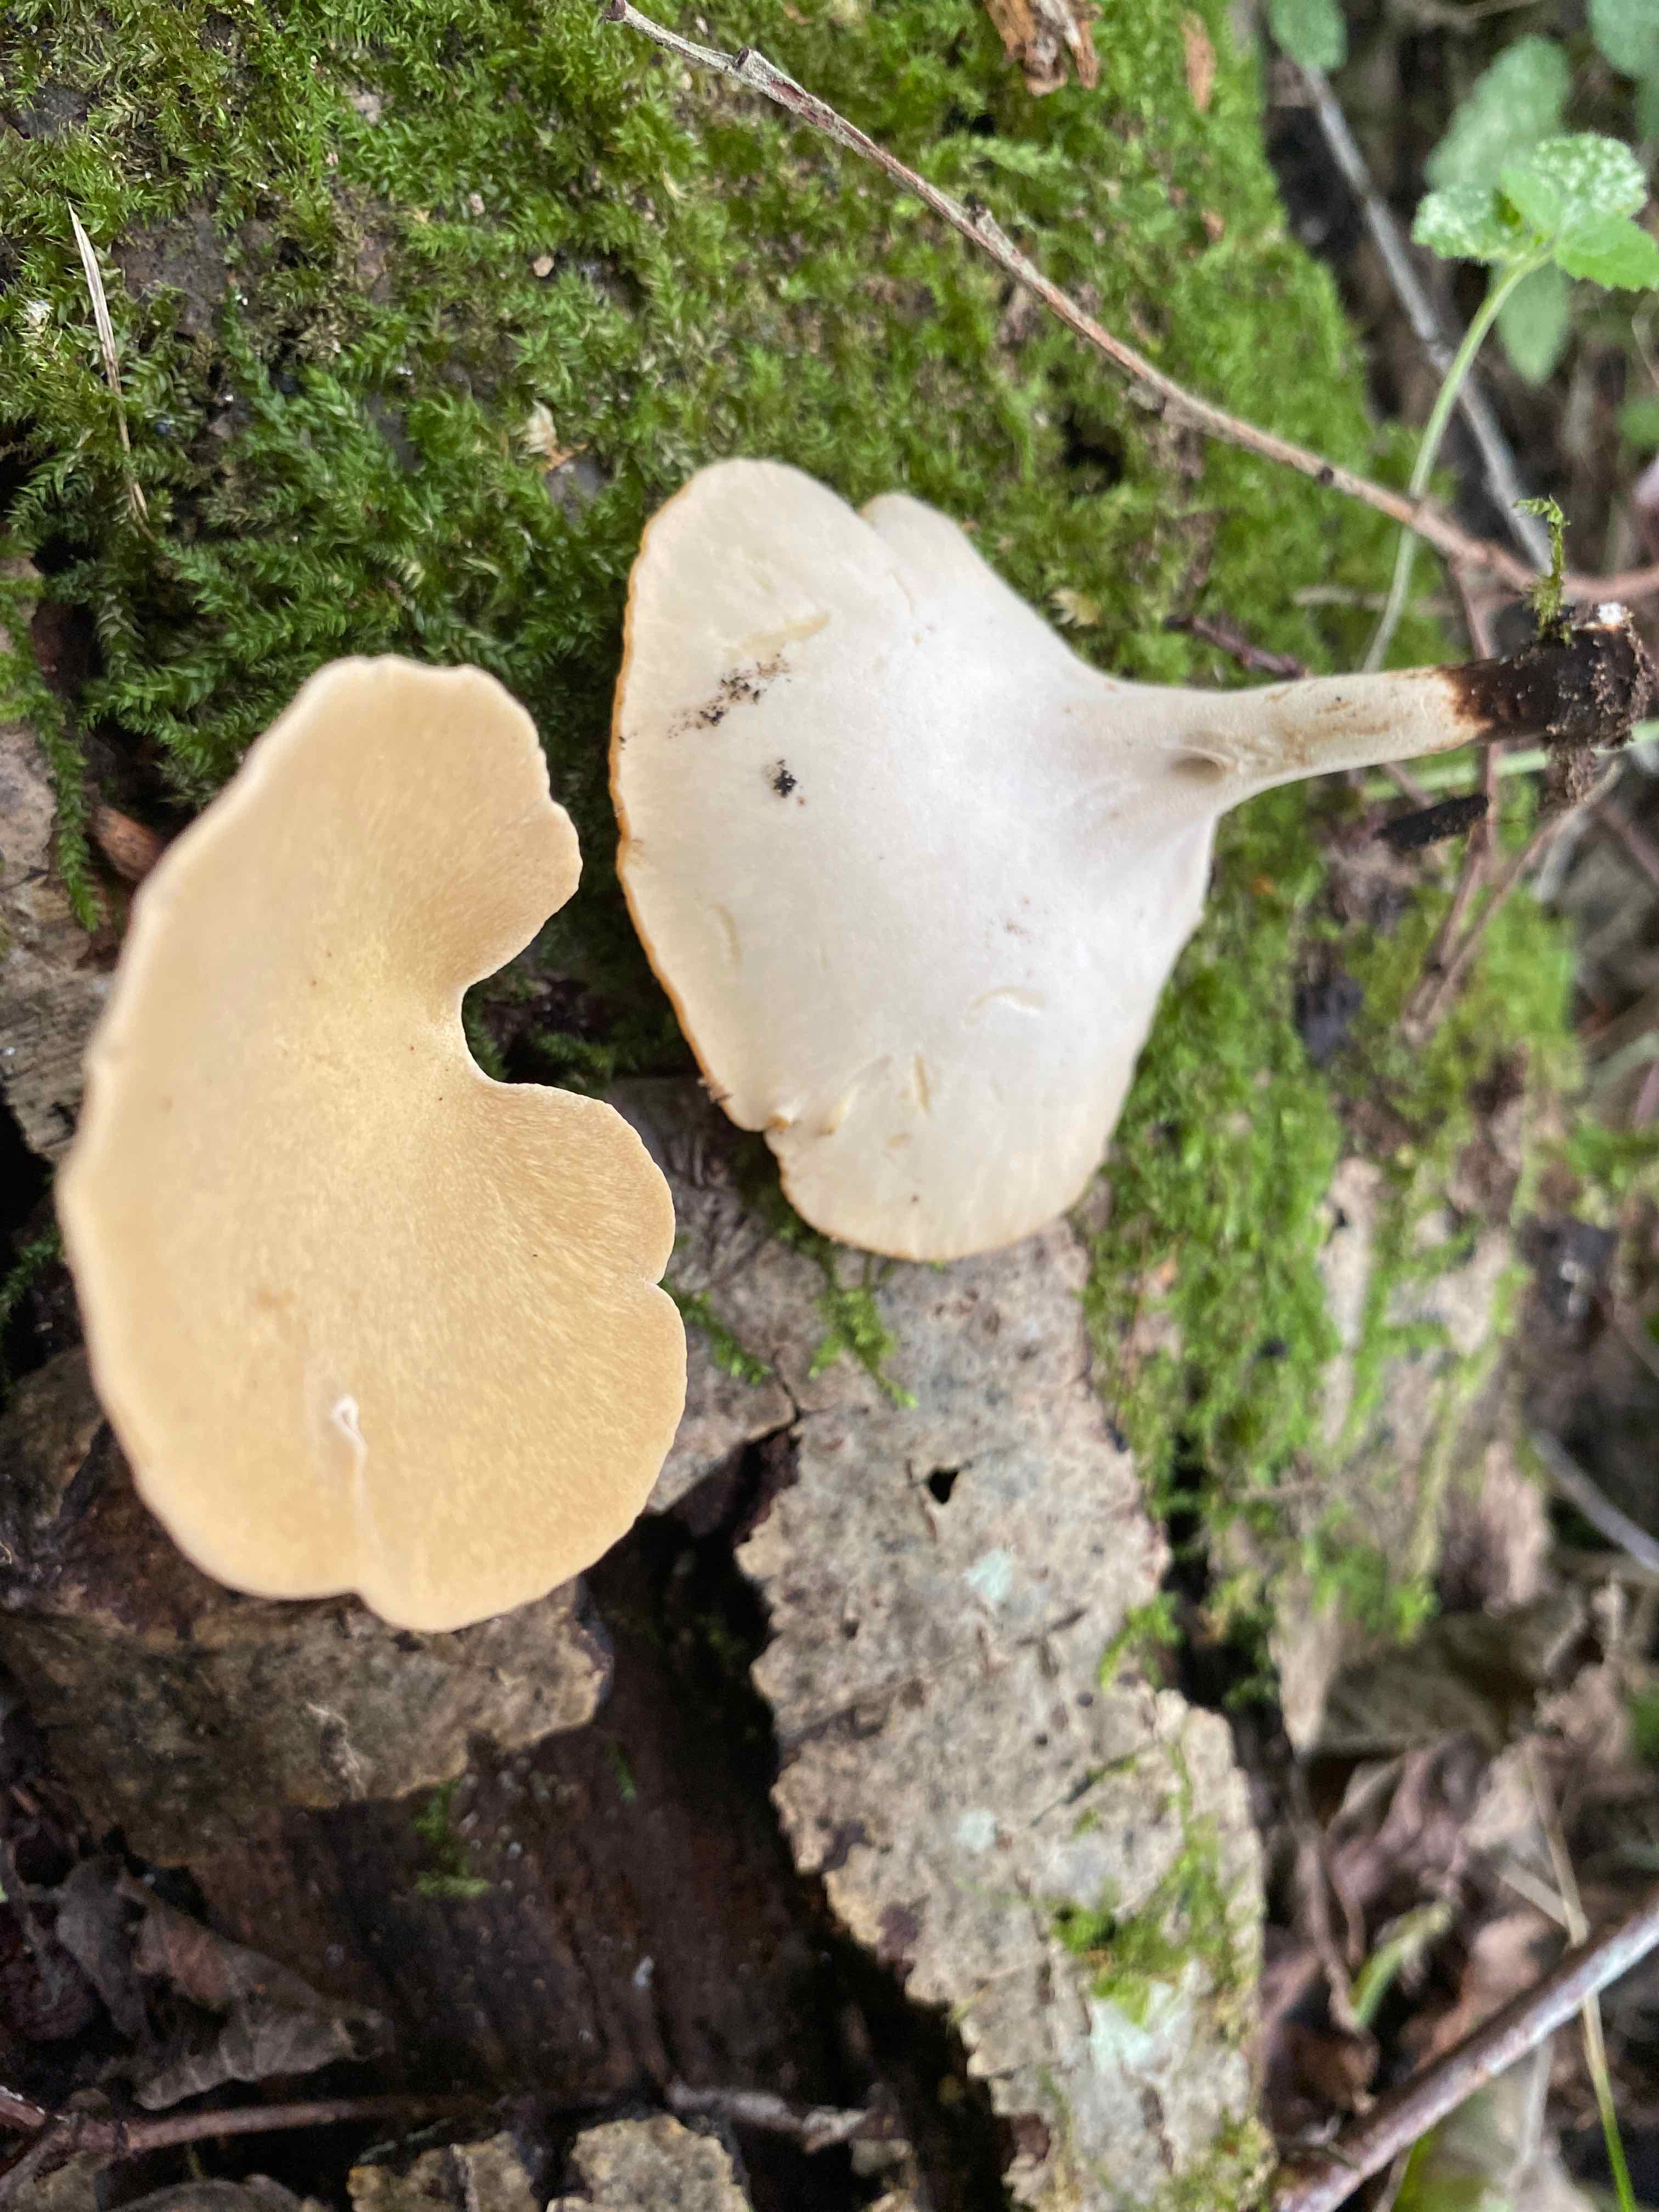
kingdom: Fungi
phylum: Basidiomycota
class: Agaricomycetes
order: Polyporales
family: Polyporaceae
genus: Cerioporus
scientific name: Cerioporus varius
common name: foranderlig stilkporesvamp
